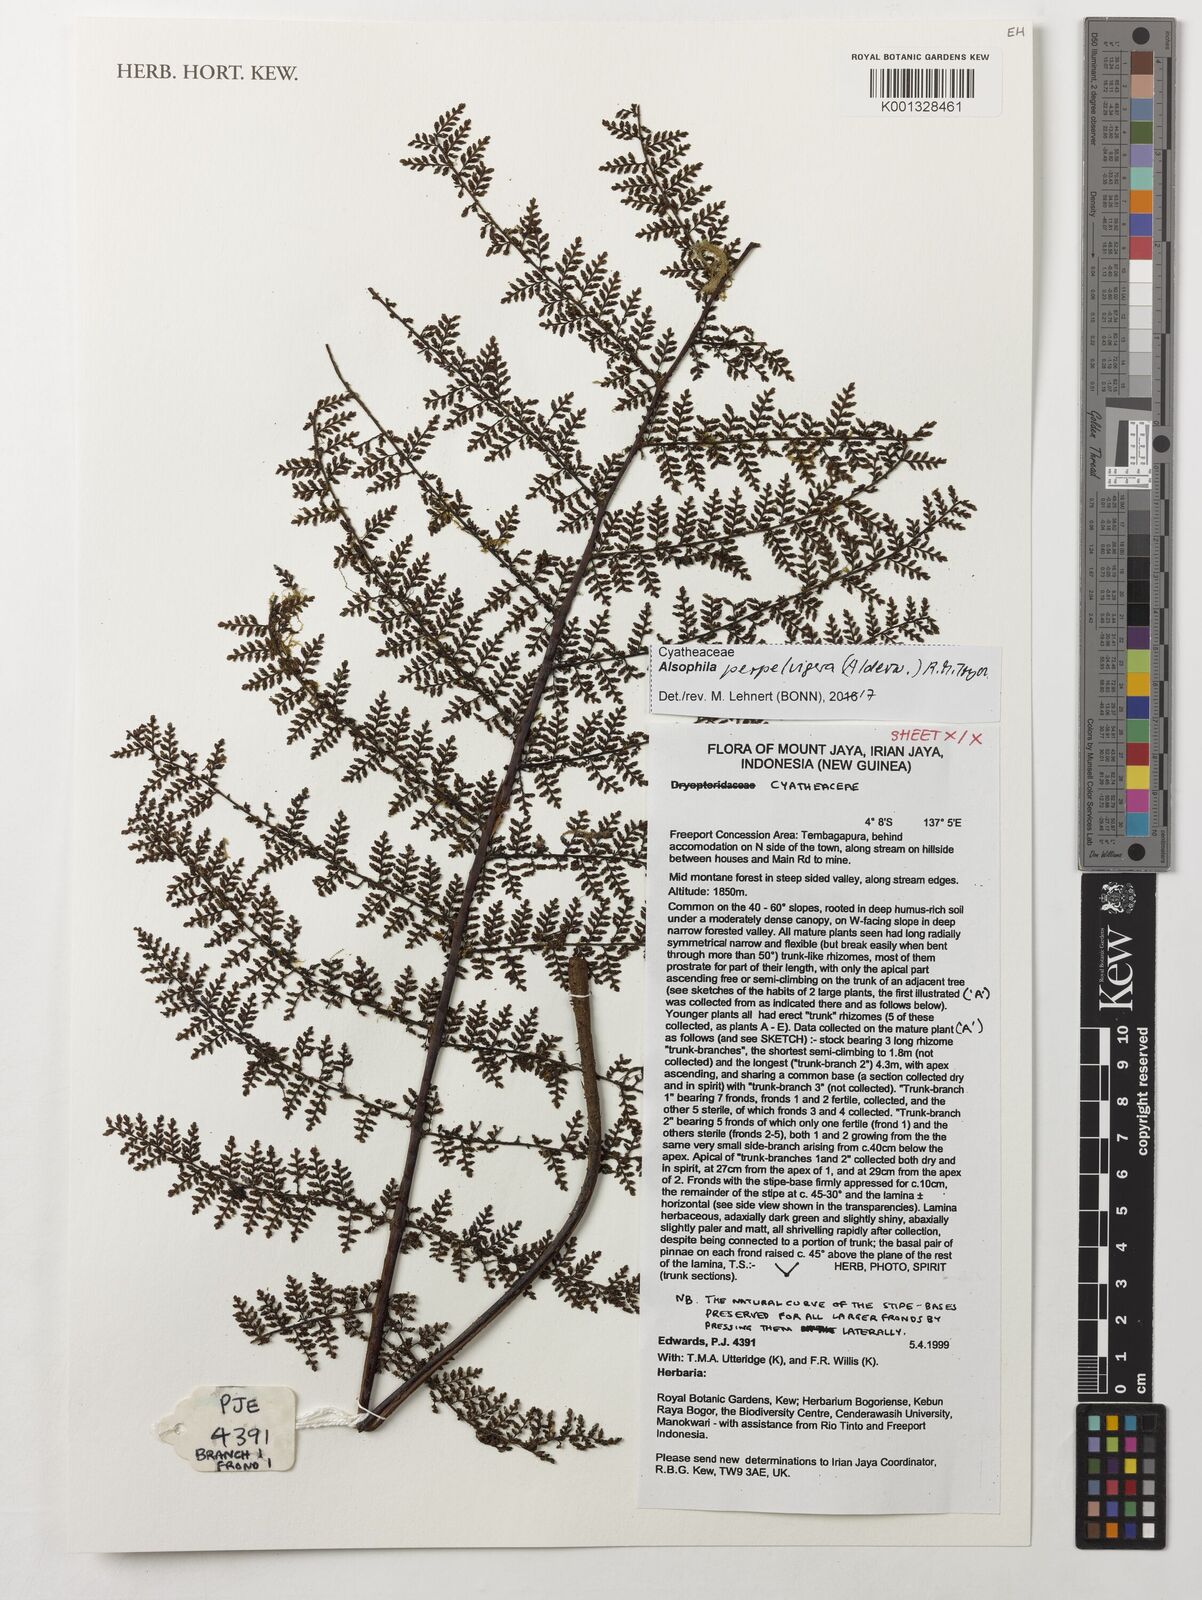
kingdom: Plantae
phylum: Tracheophyta
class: Polypodiopsida
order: Cyatheales
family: Cyatheaceae
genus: Alsophila
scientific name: Alsophila perpelvigera
